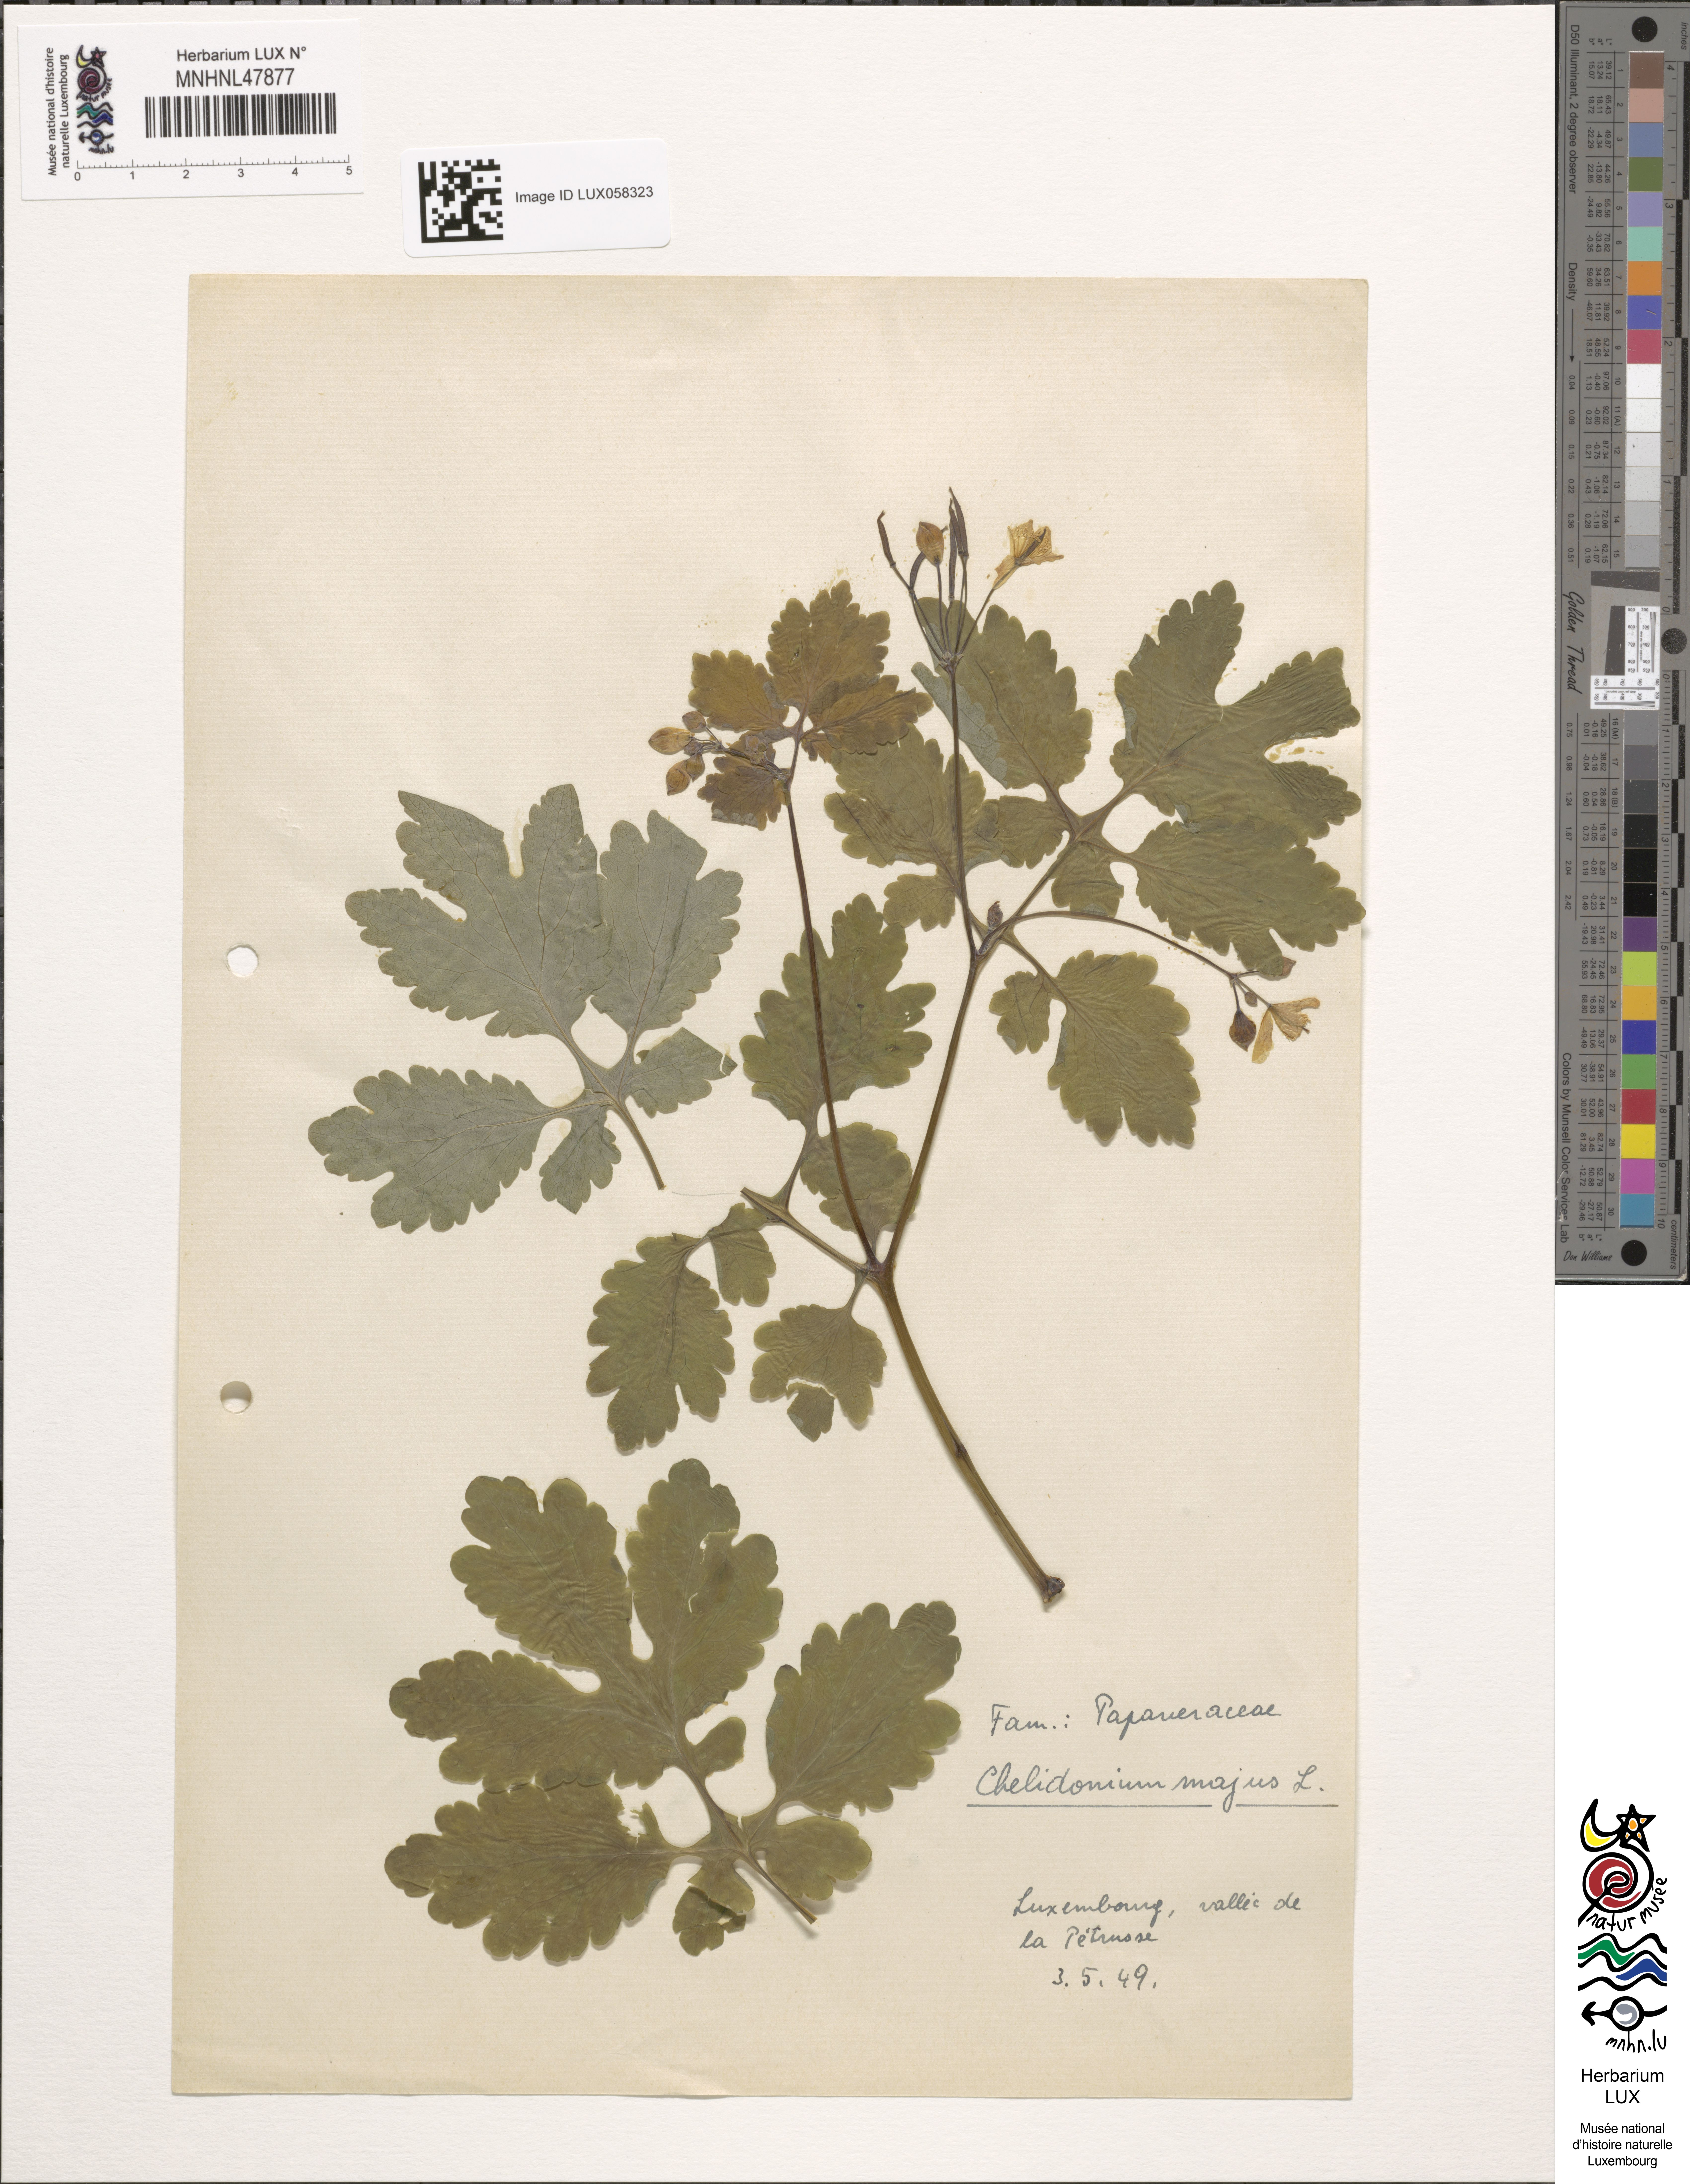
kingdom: Plantae
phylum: Tracheophyta
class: Magnoliopsida
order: Ranunculales
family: Papaveraceae
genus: Chelidonium
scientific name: Chelidonium majus
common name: Greater celandine
